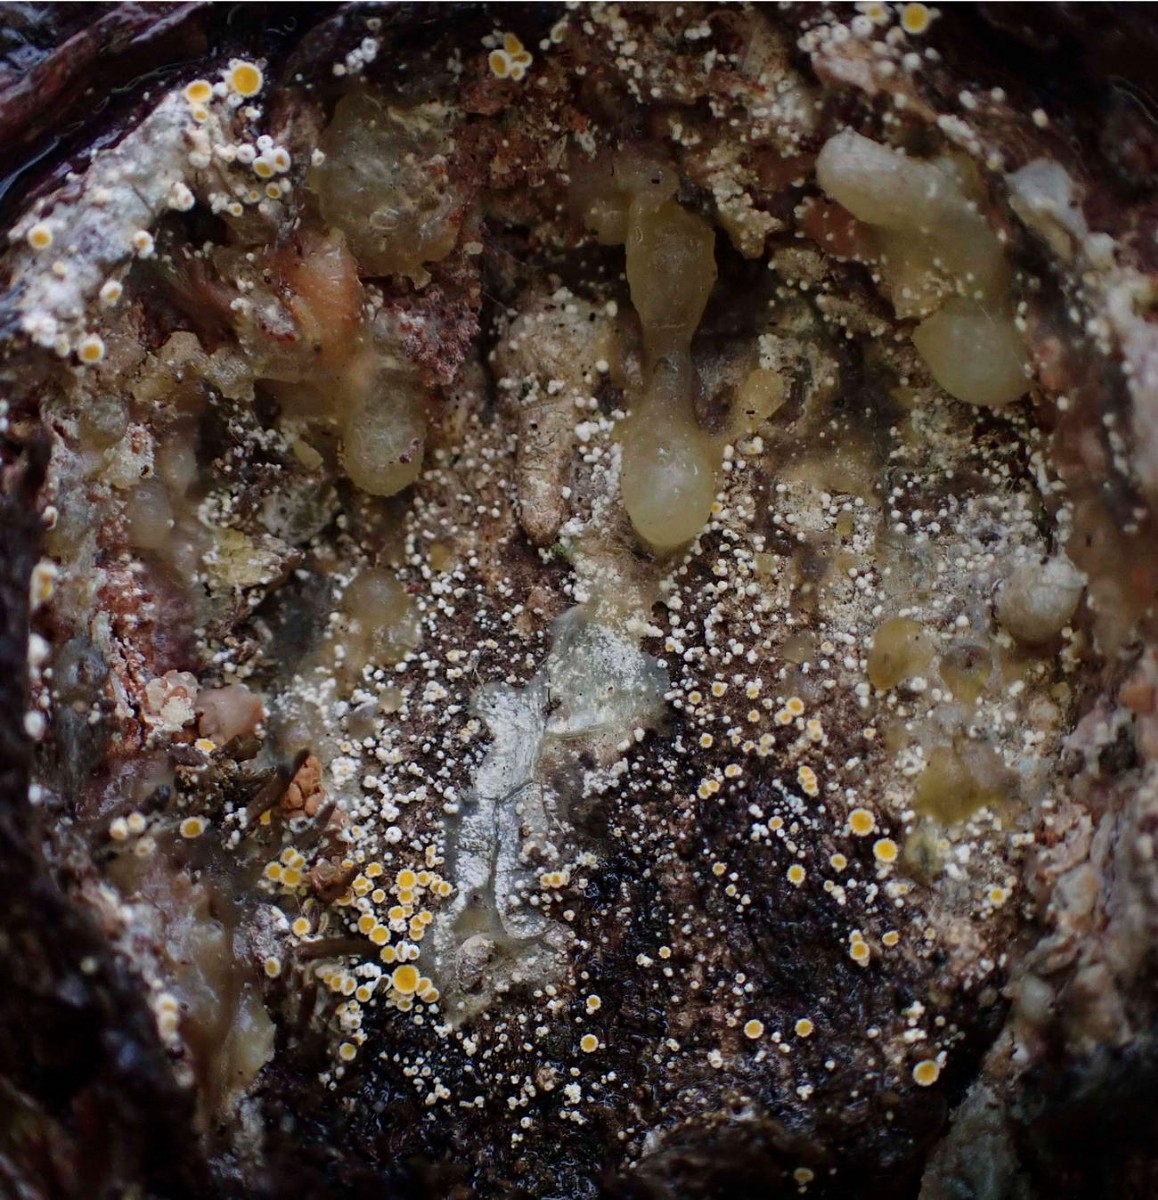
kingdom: Fungi
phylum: Ascomycota
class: Leotiomycetes
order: Helotiales
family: Lachnaceae
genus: Lachnellula
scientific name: Lachnellula calycina
